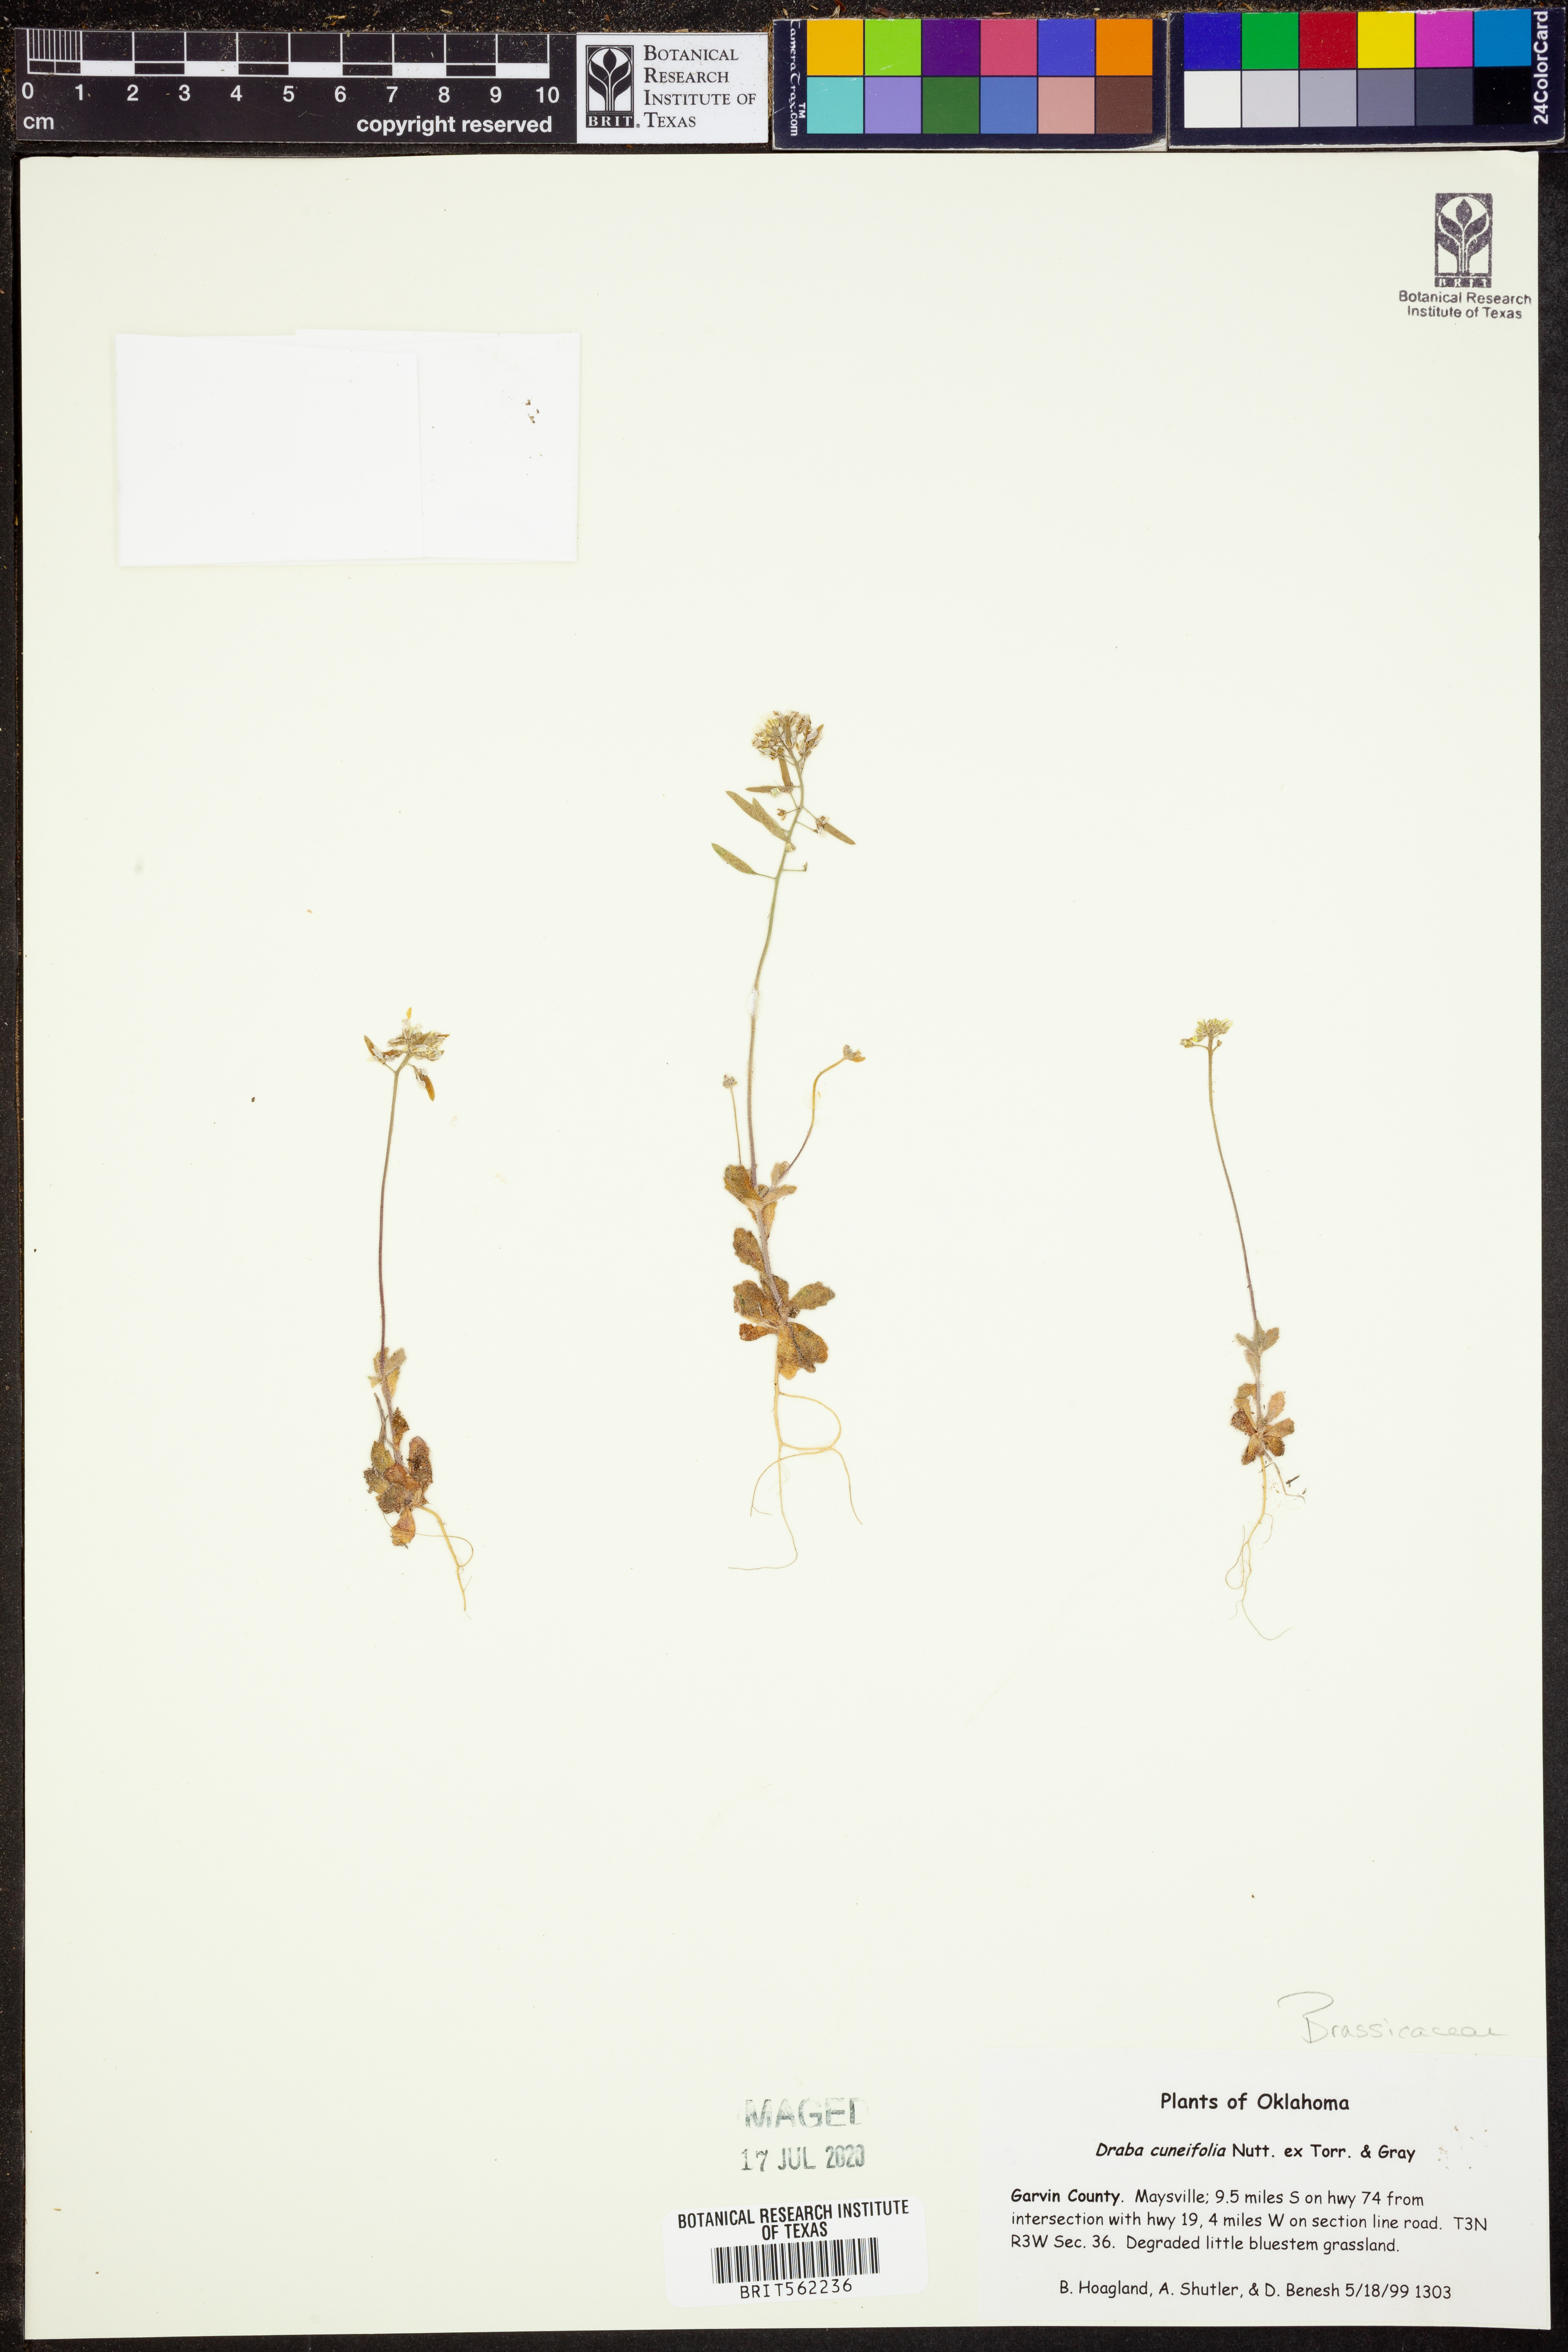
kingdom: Plantae
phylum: Tracheophyta
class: Magnoliopsida
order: Brassicales
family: Brassicaceae
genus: Tomostima
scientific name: Tomostima cuneifolia
